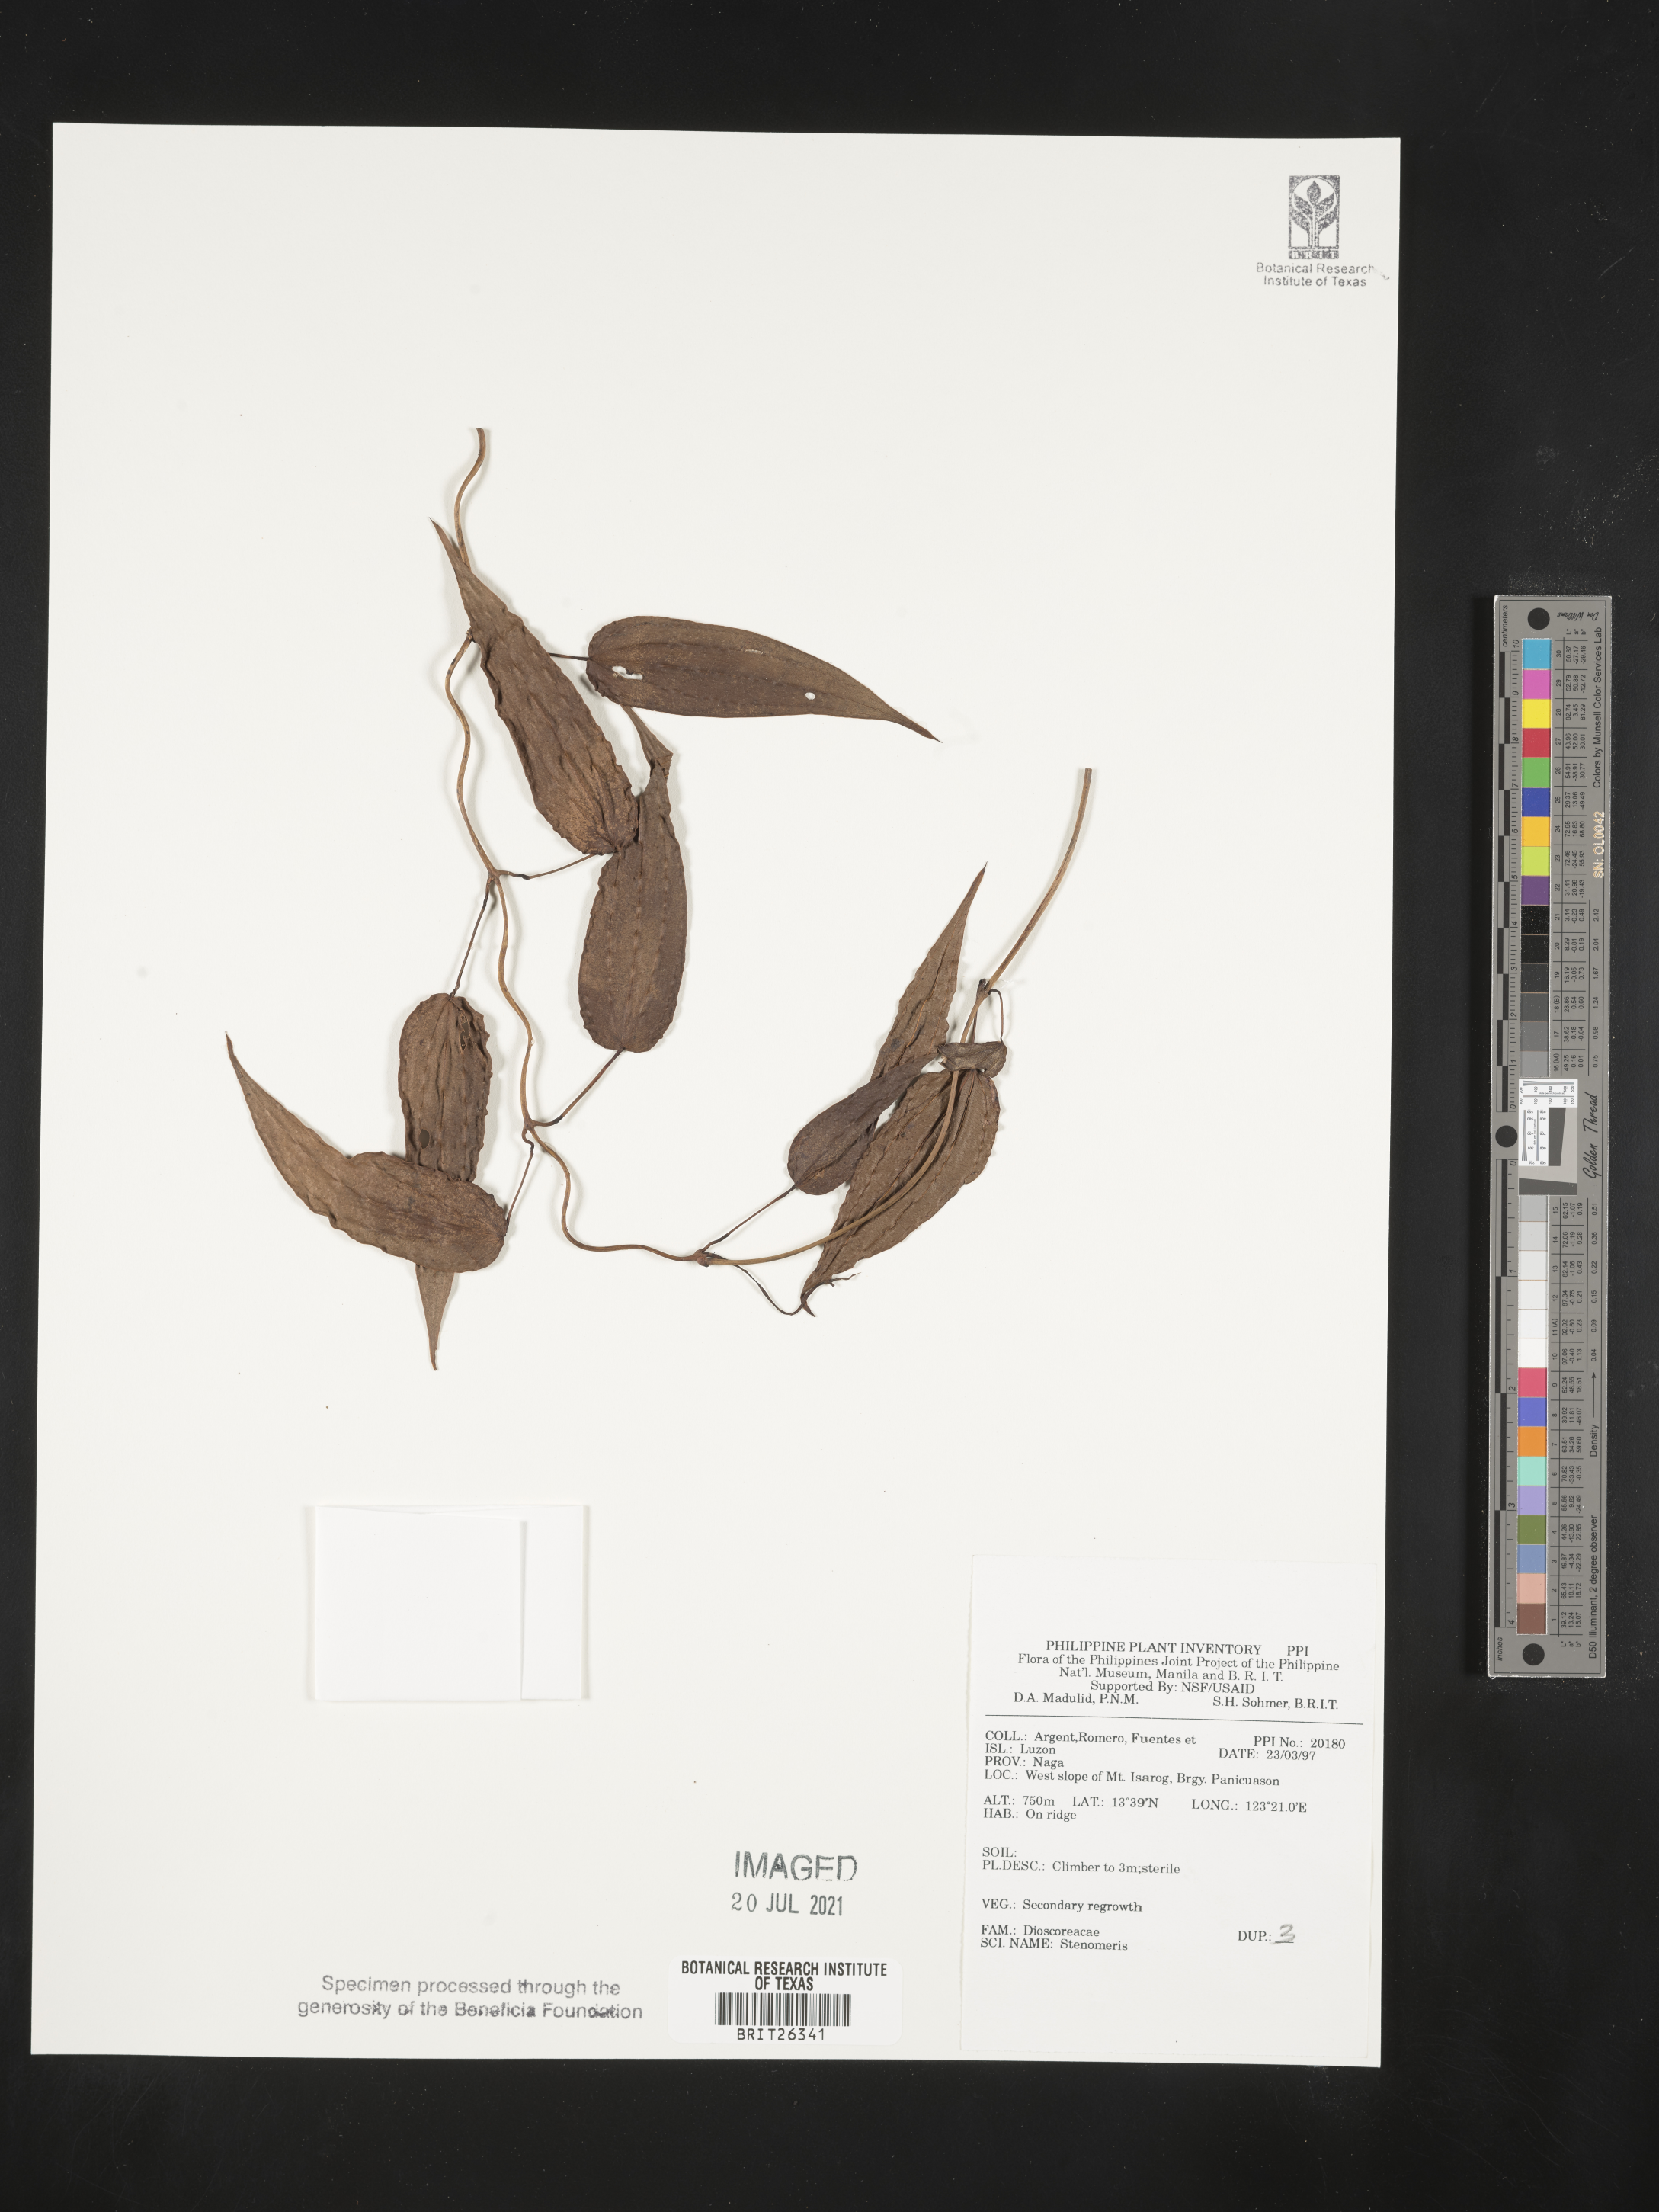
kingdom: Plantae
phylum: Tracheophyta
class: Liliopsida
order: Dioscoreales
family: Dioscoreaceae
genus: Stenomeris
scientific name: Stenomeris
